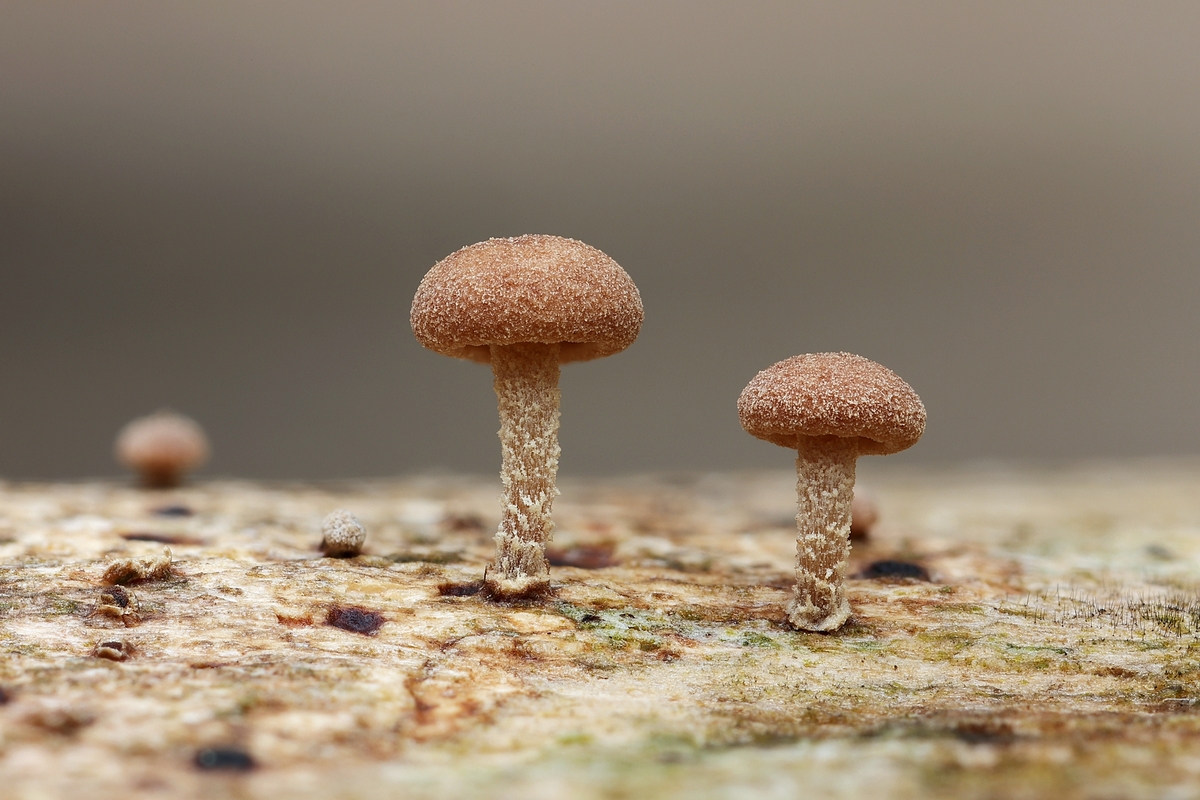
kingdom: Fungi
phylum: Basidiomycota
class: Agaricomycetes
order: Agaricales
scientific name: Agaricales
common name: champignonordenen
